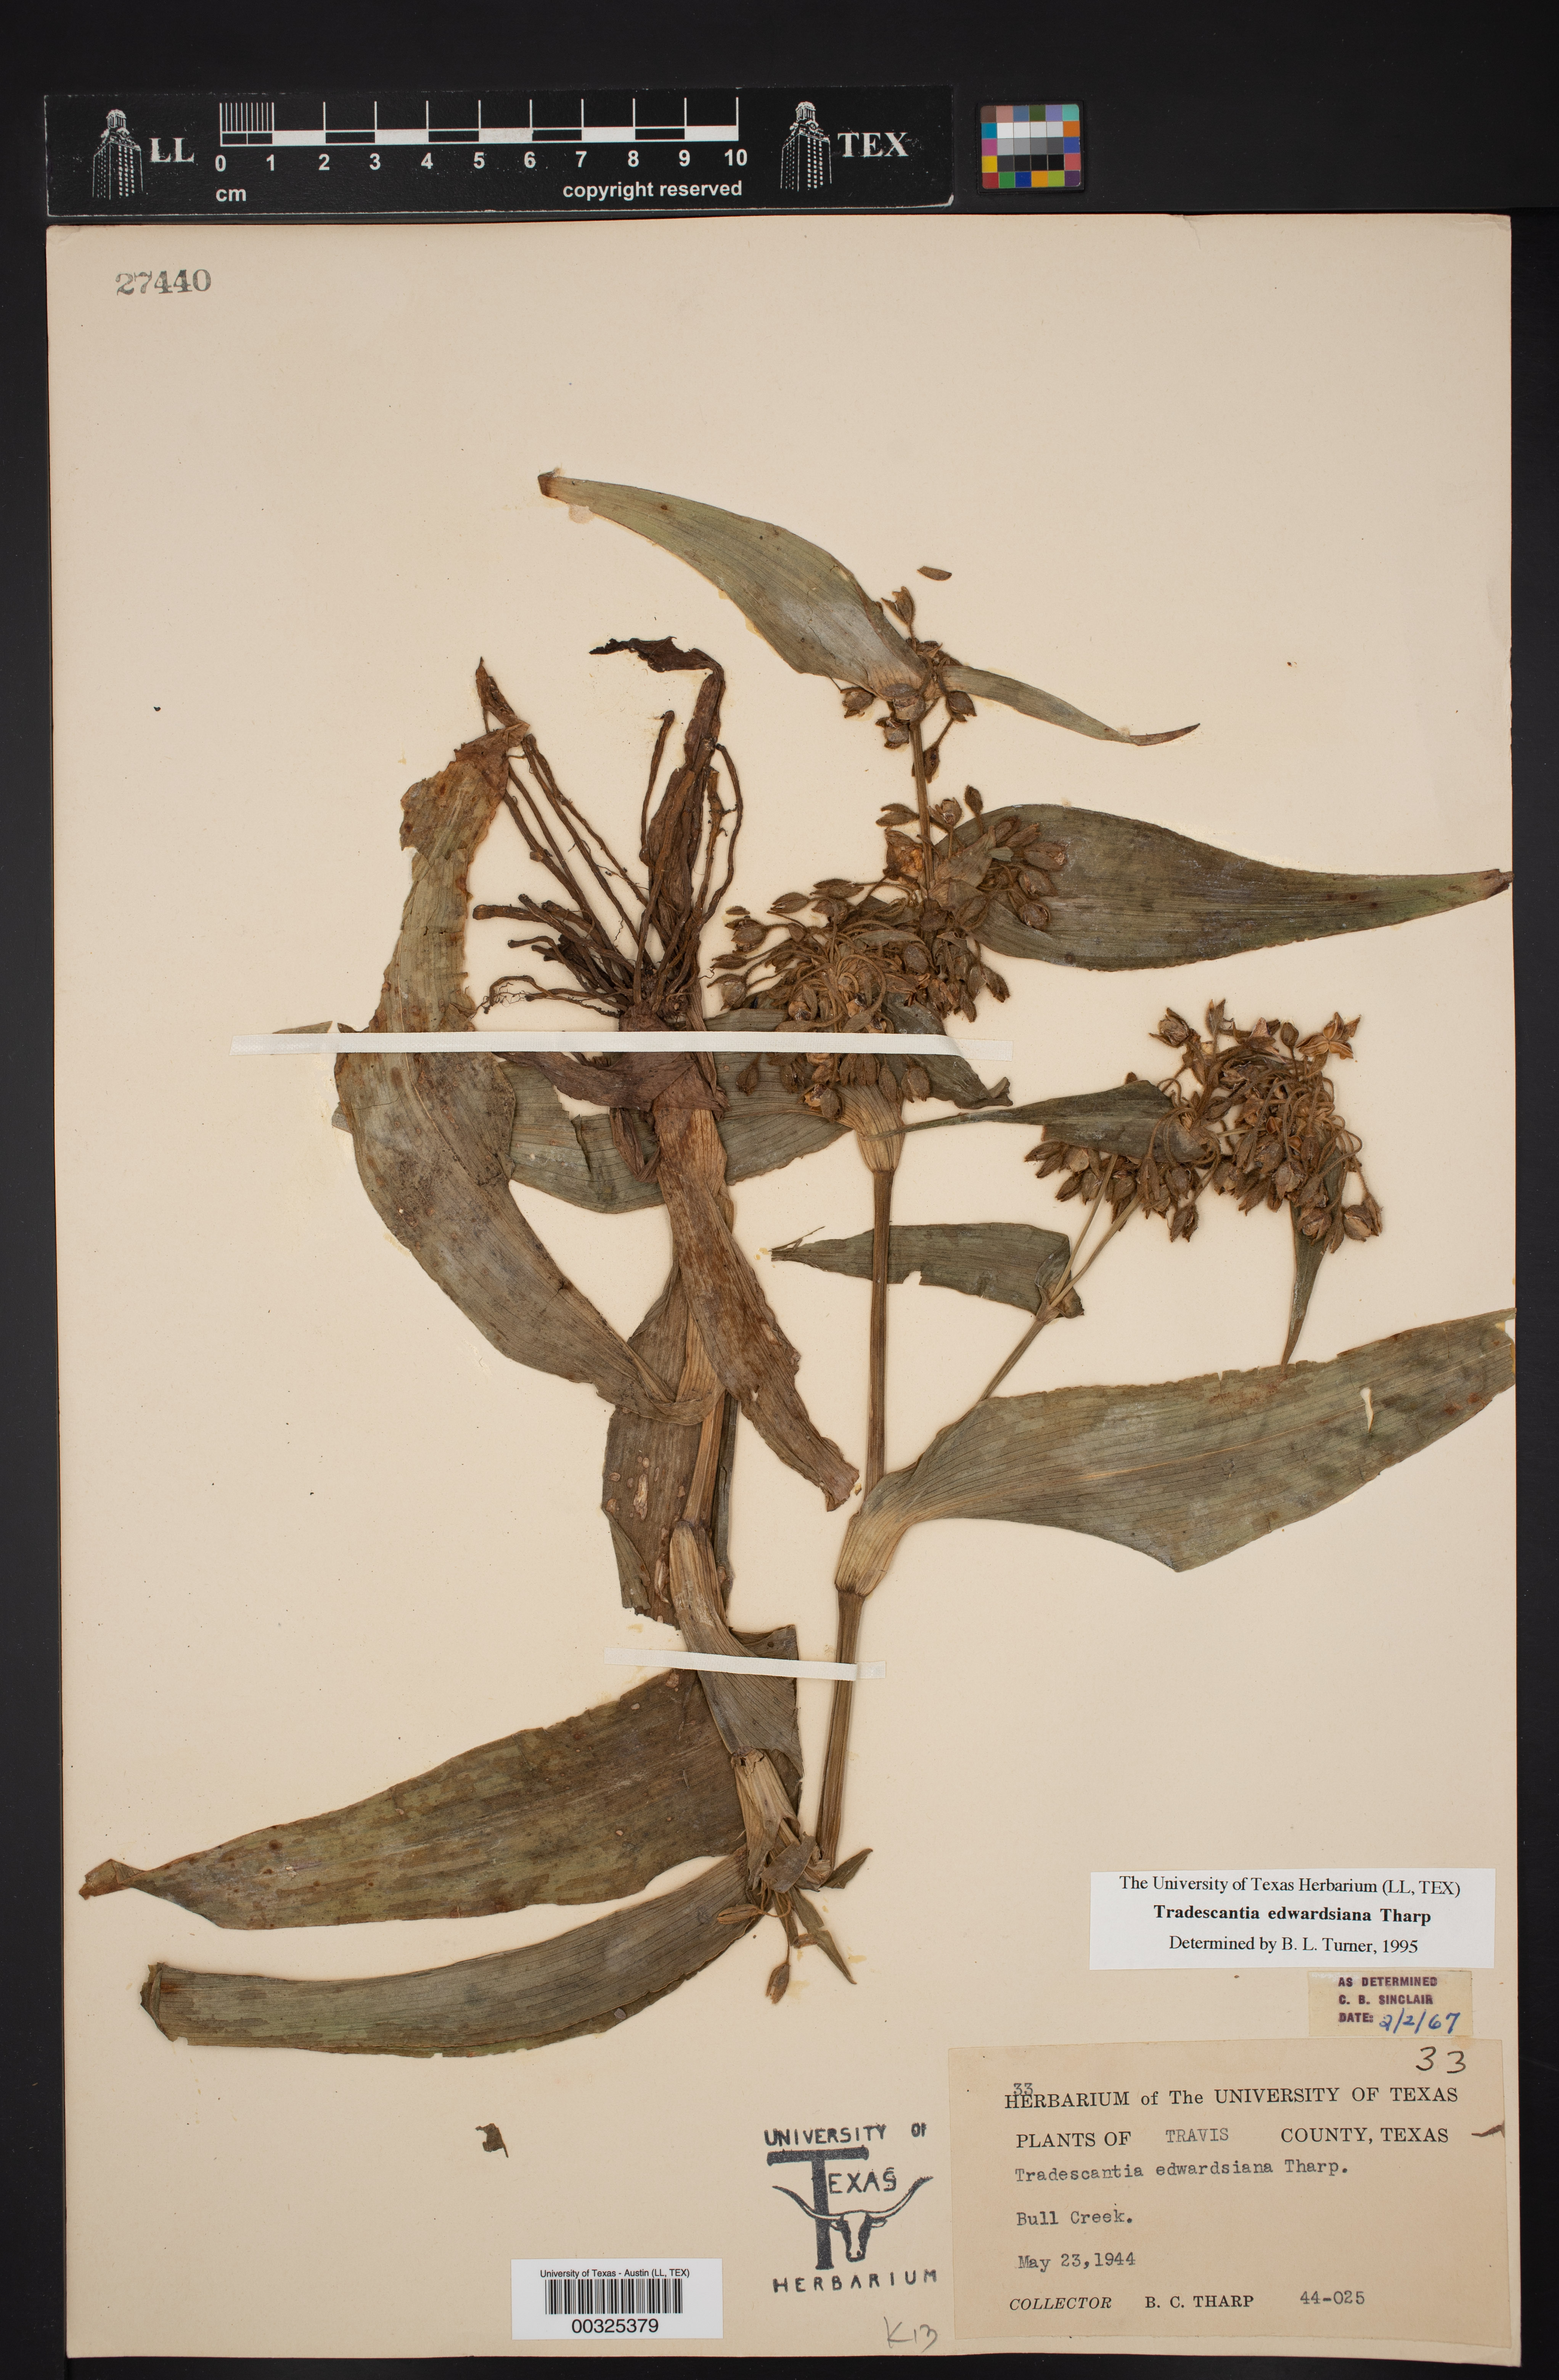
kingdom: Plantae
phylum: Tracheophyta
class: Liliopsida
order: Commelinales
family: Commelinaceae
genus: Tradescantia
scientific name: Tradescantia edwardsiana
